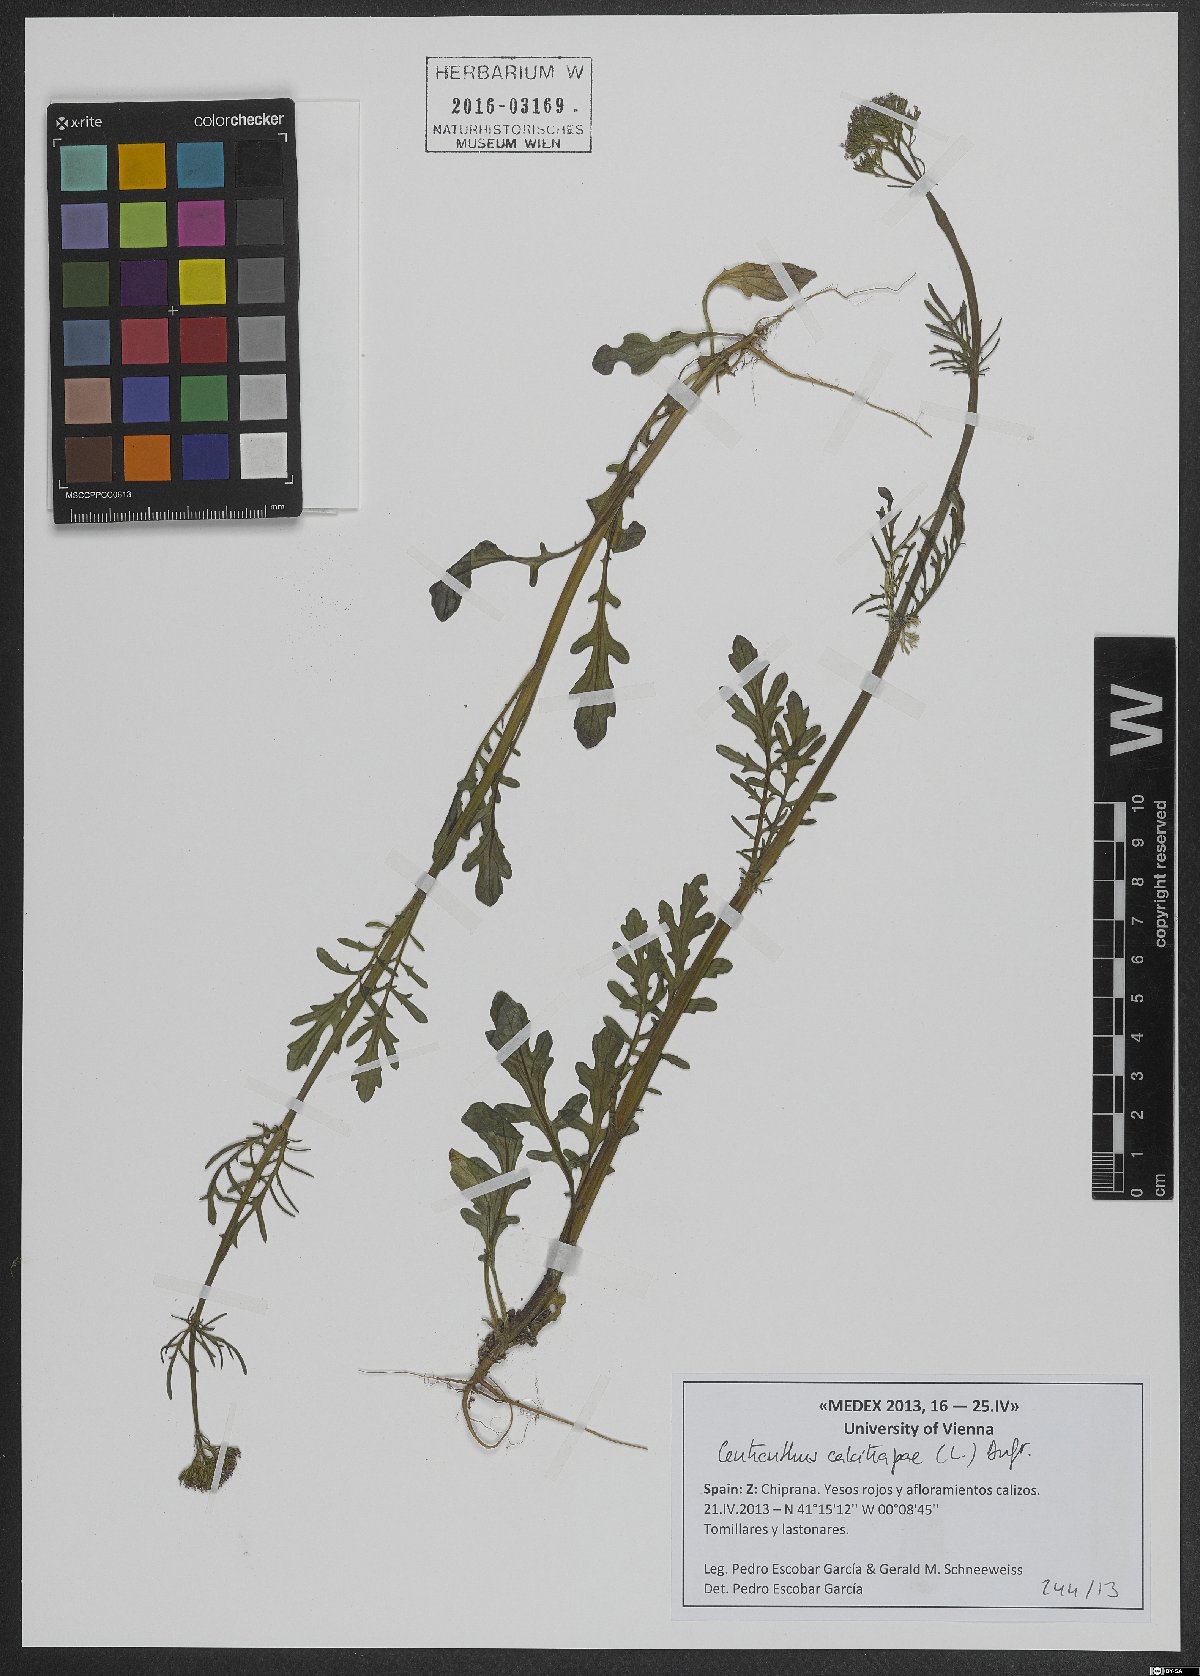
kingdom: Plantae
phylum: Tracheophyta
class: Magnoliopsida
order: Dipsacales
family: Caprifoliaceae
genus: Centranthus
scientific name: Centranthus calcitrapae
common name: Annual valerian
